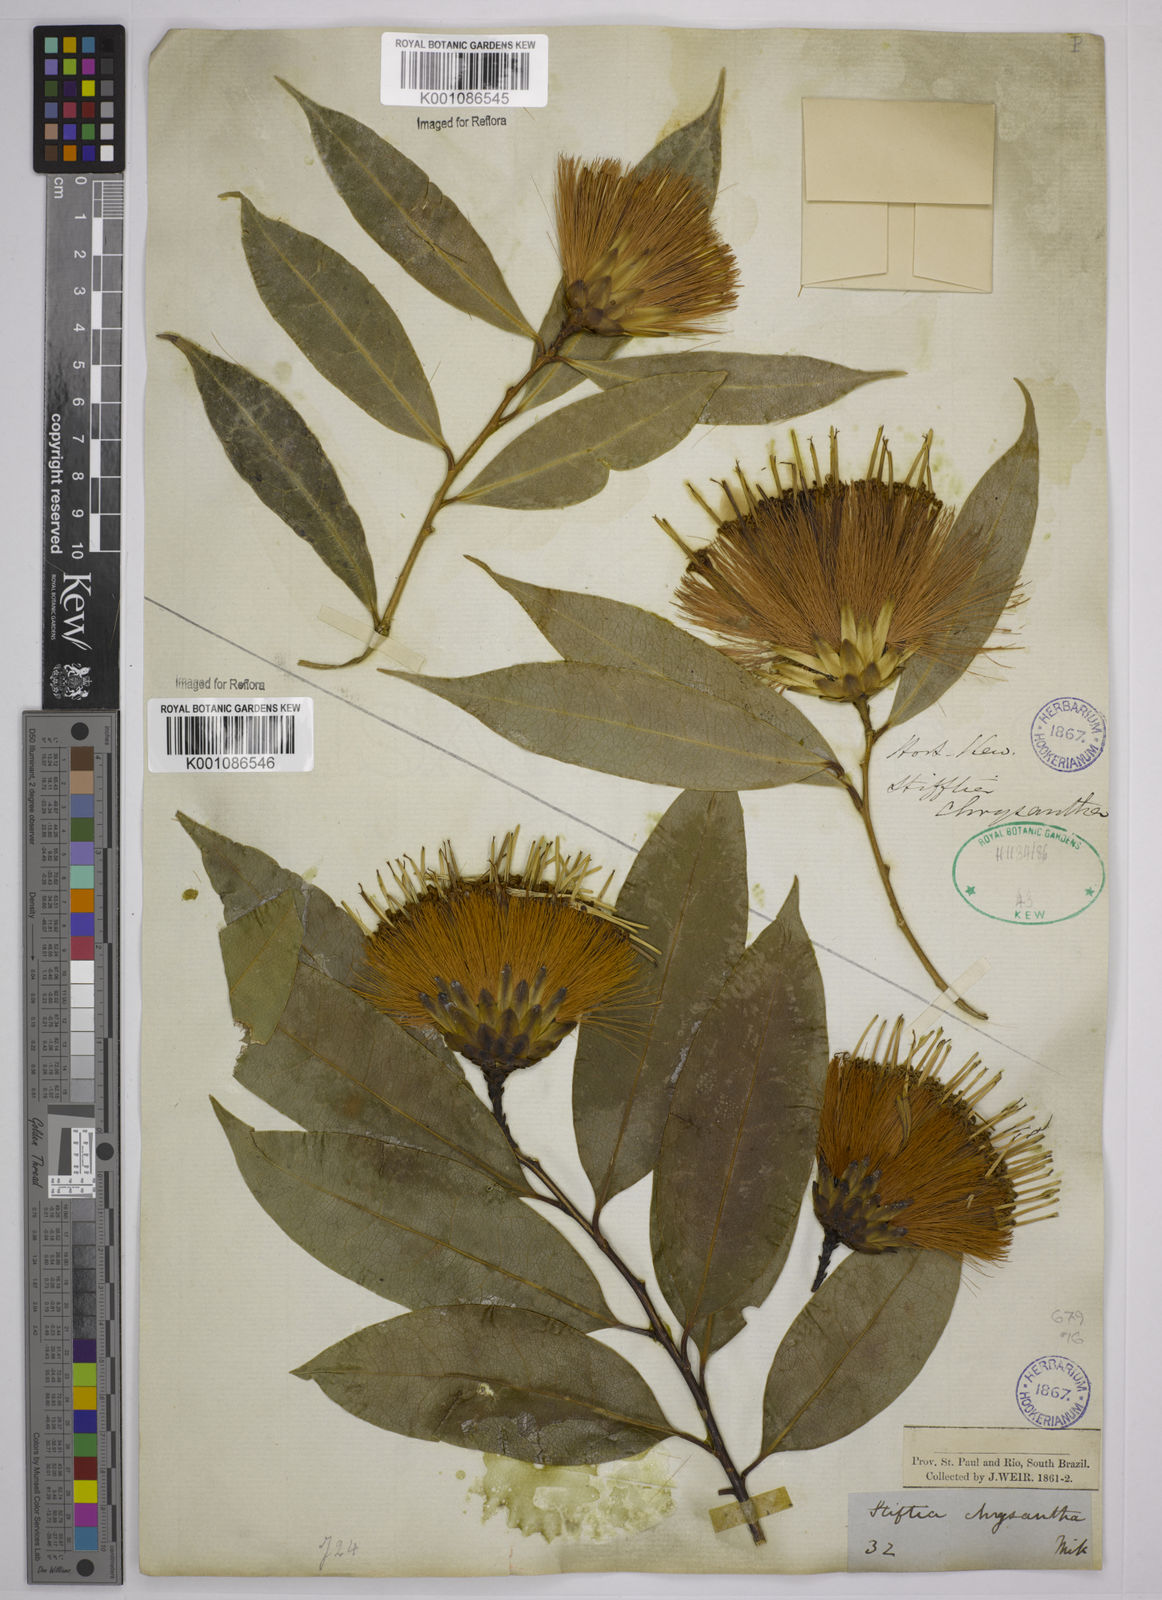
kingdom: Plantae
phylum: Tracheophyta
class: Magnoliopsida
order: Asterales
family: Asteraceae
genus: Stifftia
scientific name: Stifftia chrysantha
